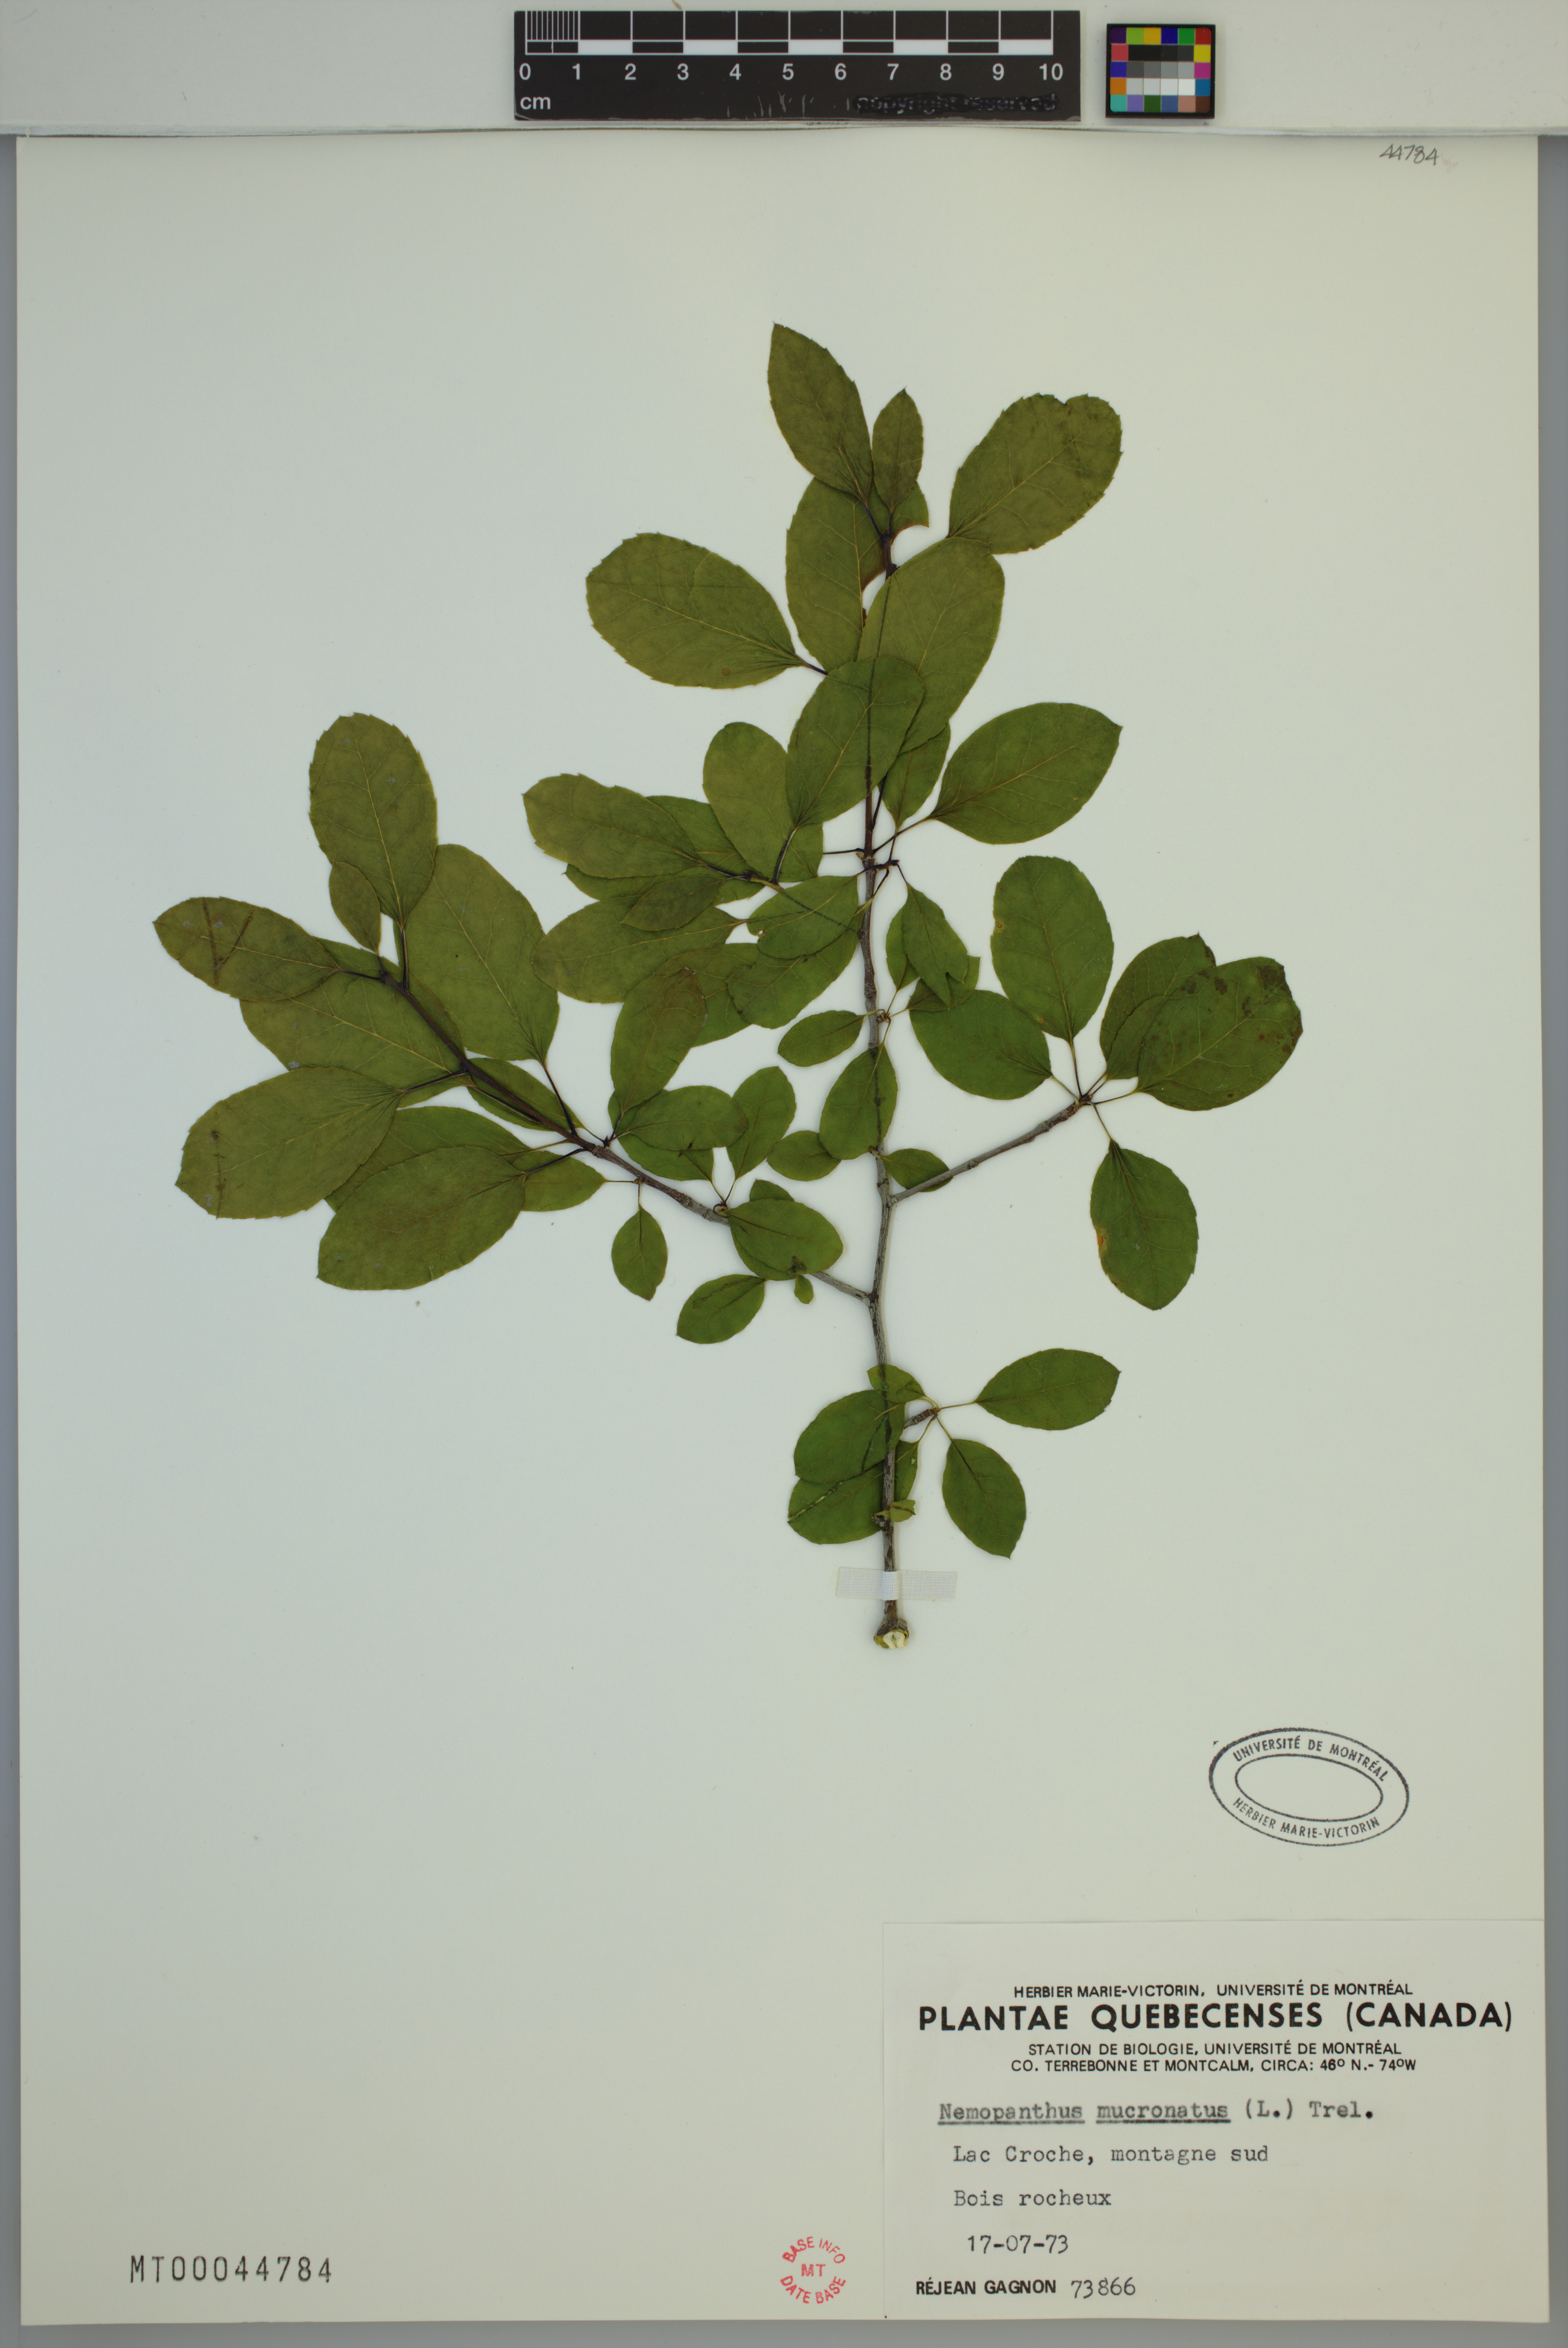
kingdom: Plantae
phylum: Tracheophyta
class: Magnoliopsida
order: Aquifoliales
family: Aquifoliaceae
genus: Ilex
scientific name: Ilex mucronata
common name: Catberry
